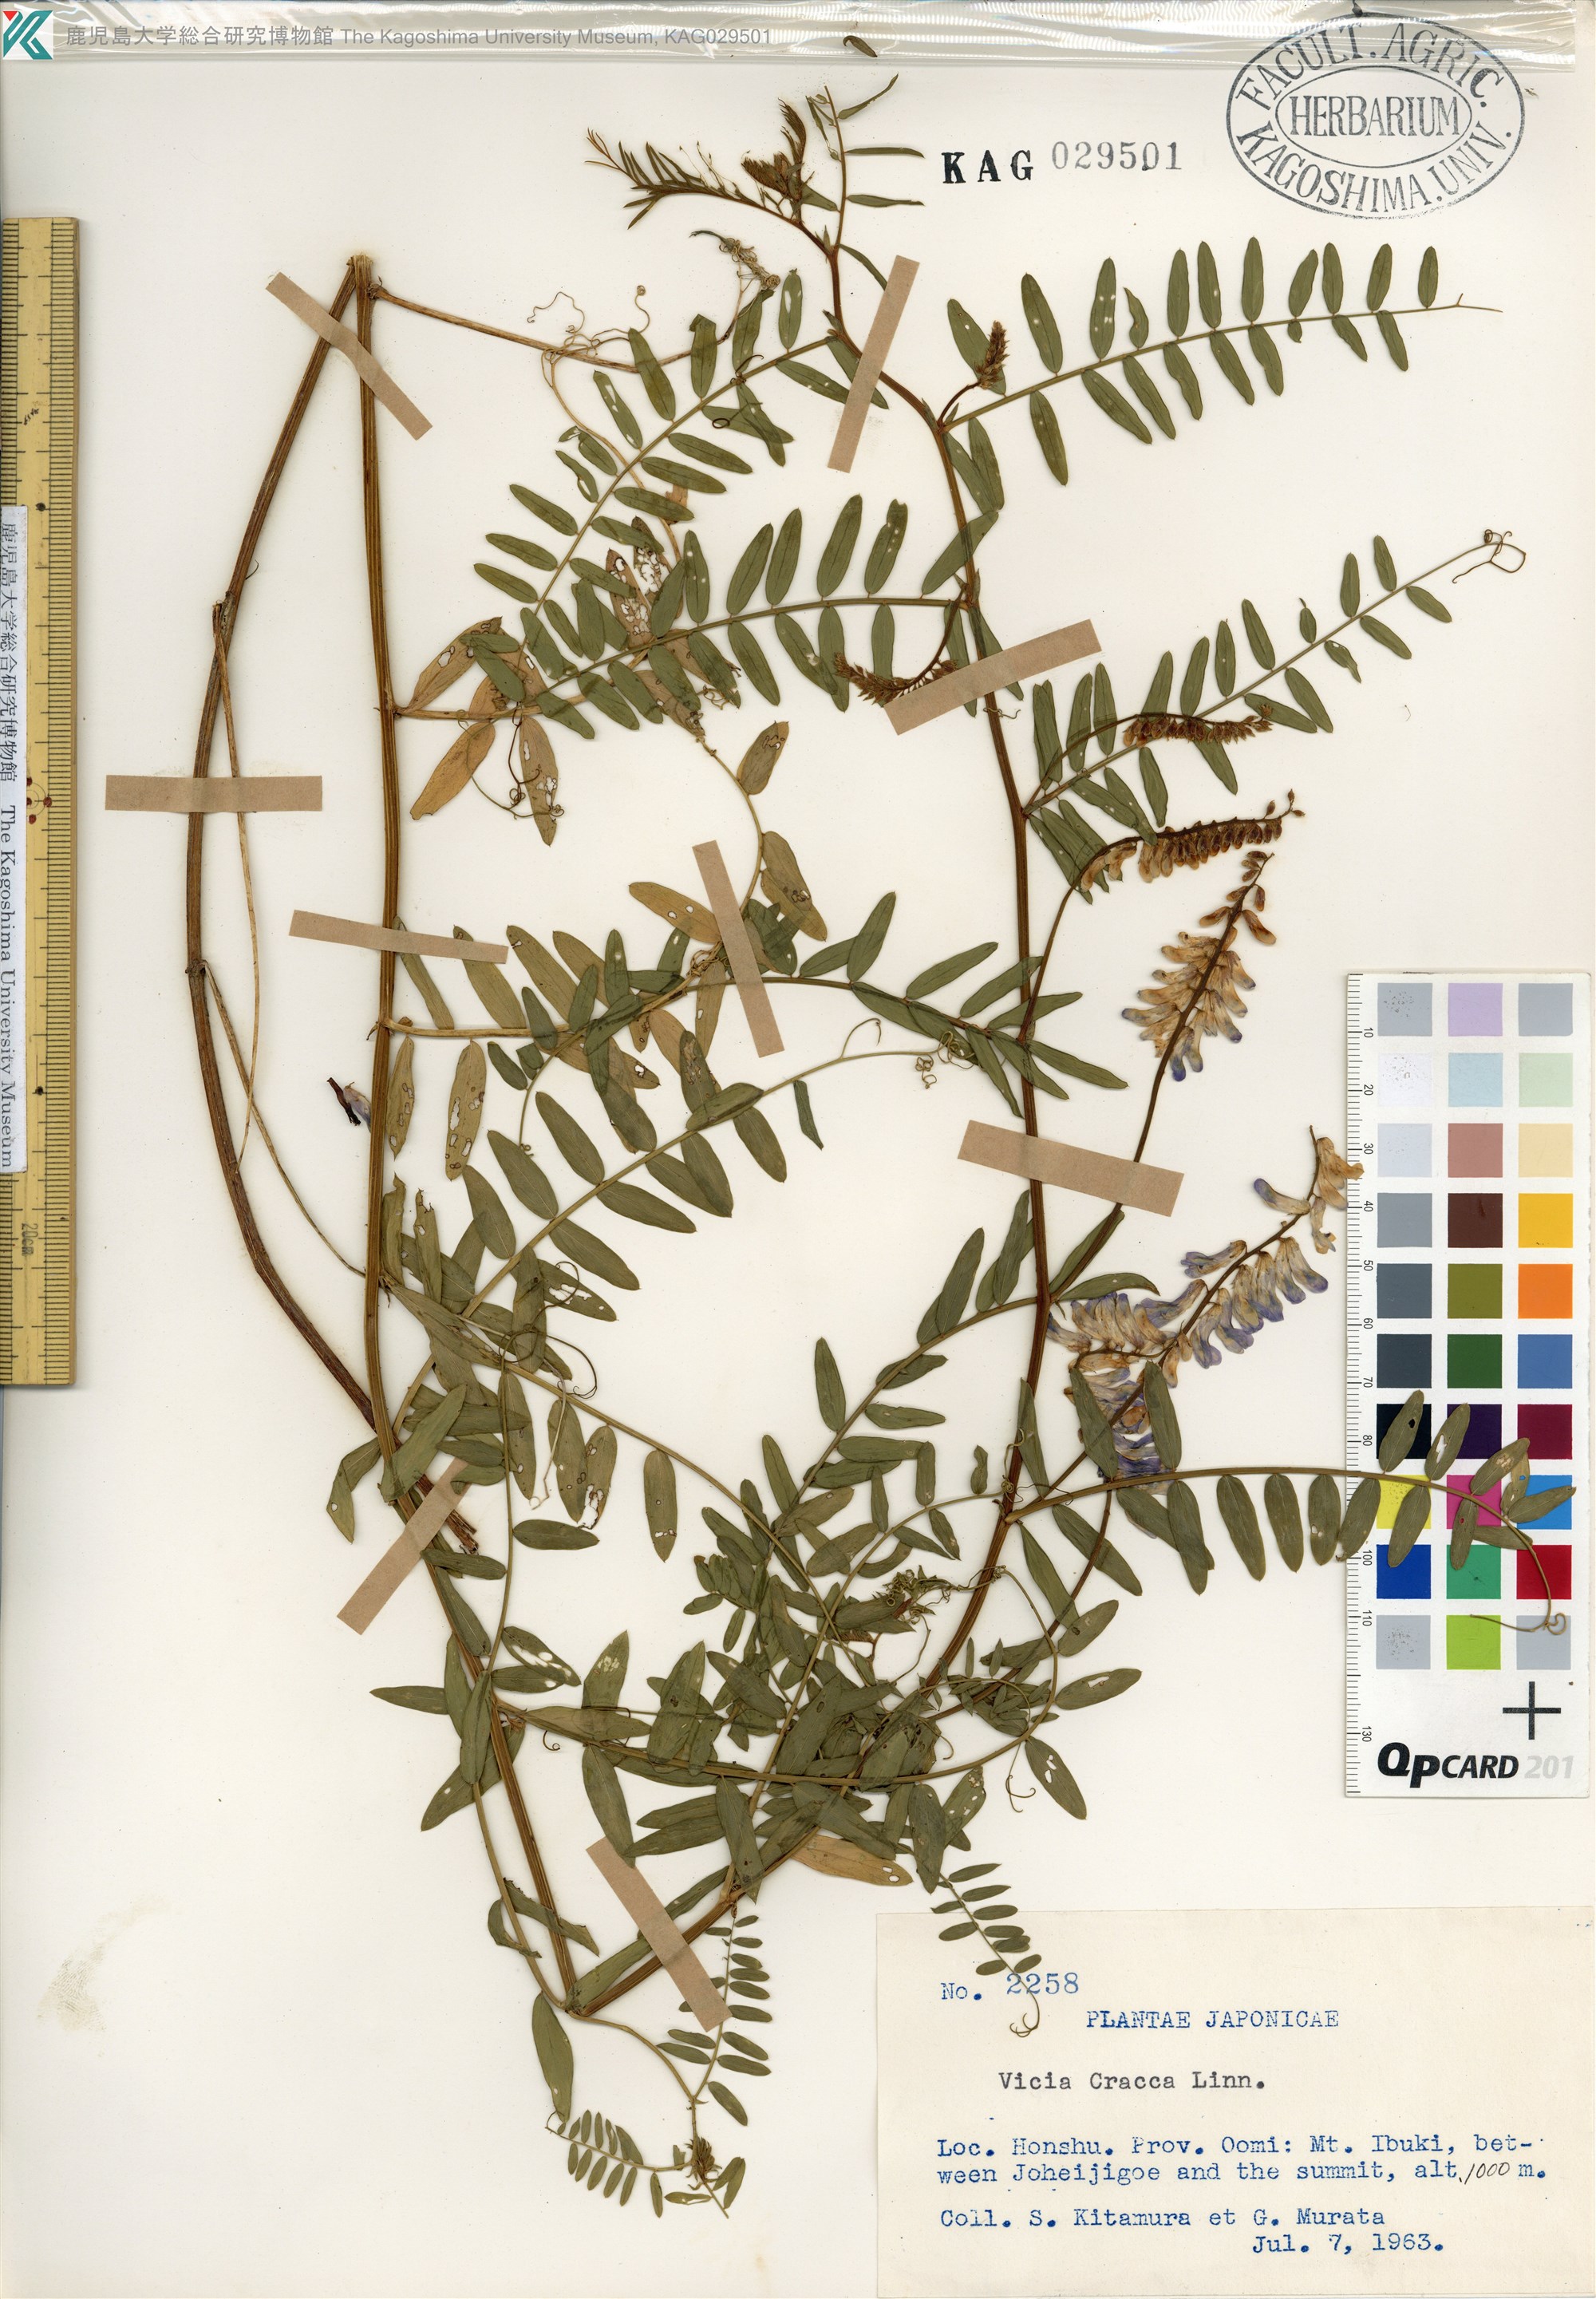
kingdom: Plantae
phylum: Tracheophyta
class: Magnoliopsida
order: Fabales
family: Fabaceae
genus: Vicia
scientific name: Vicia cracca
